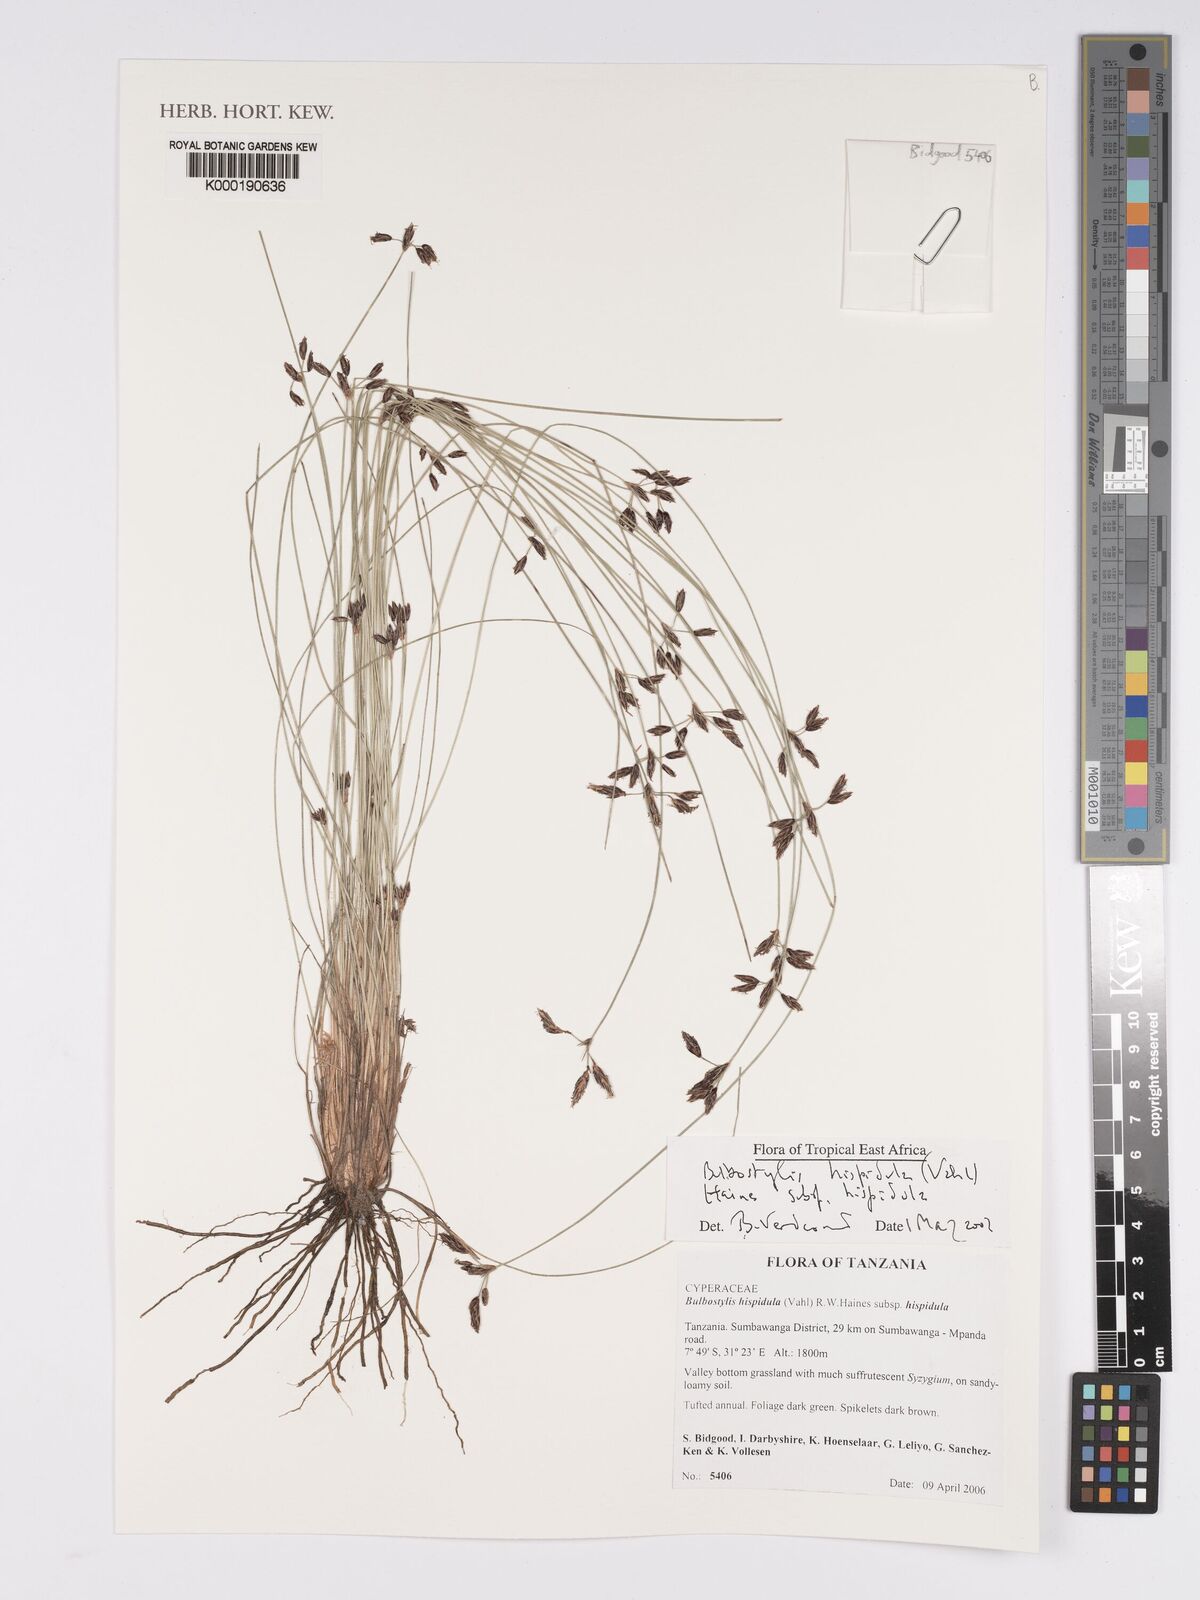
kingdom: Plantae
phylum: Tracheophyta
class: Liliopsida
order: Poales
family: Cyperaceae
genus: Bulbostylis
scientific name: Bulbostylis hispidula
